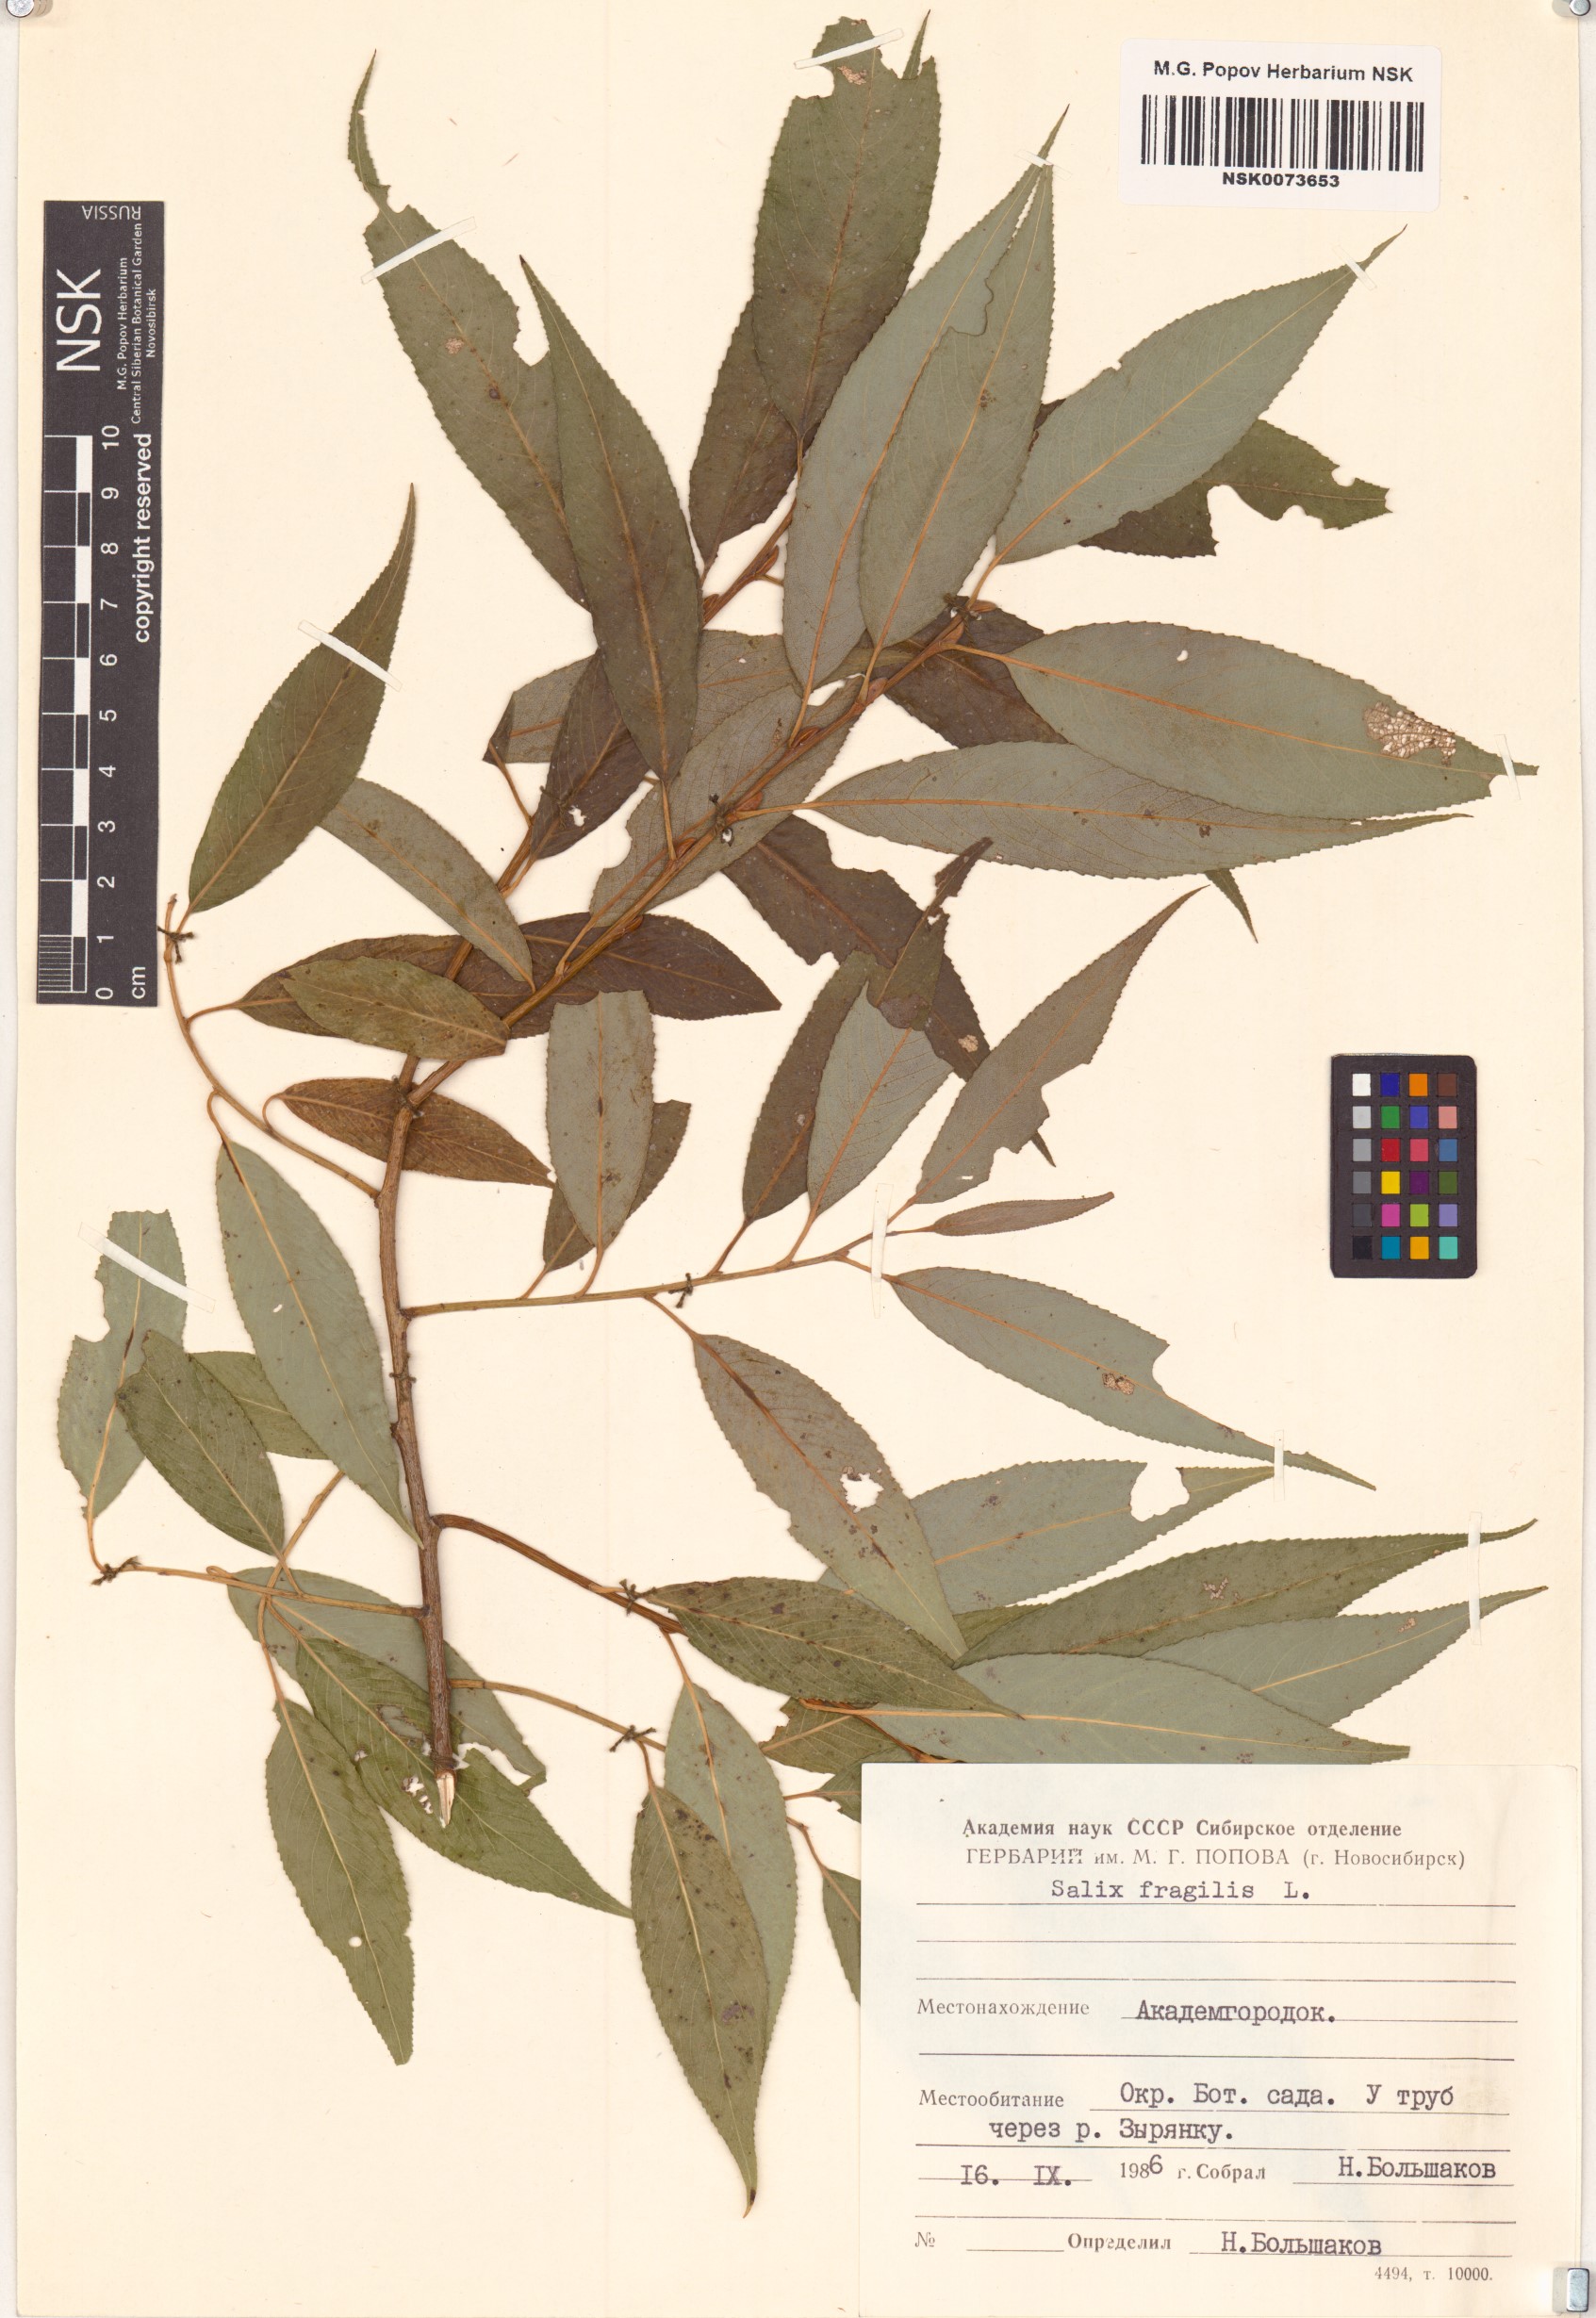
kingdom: Plantae
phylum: Tracheophyta
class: Magnoliopsida
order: Malpighiales
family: Salicaceae
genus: Salix
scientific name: Salix fragilis
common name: Crack willow
